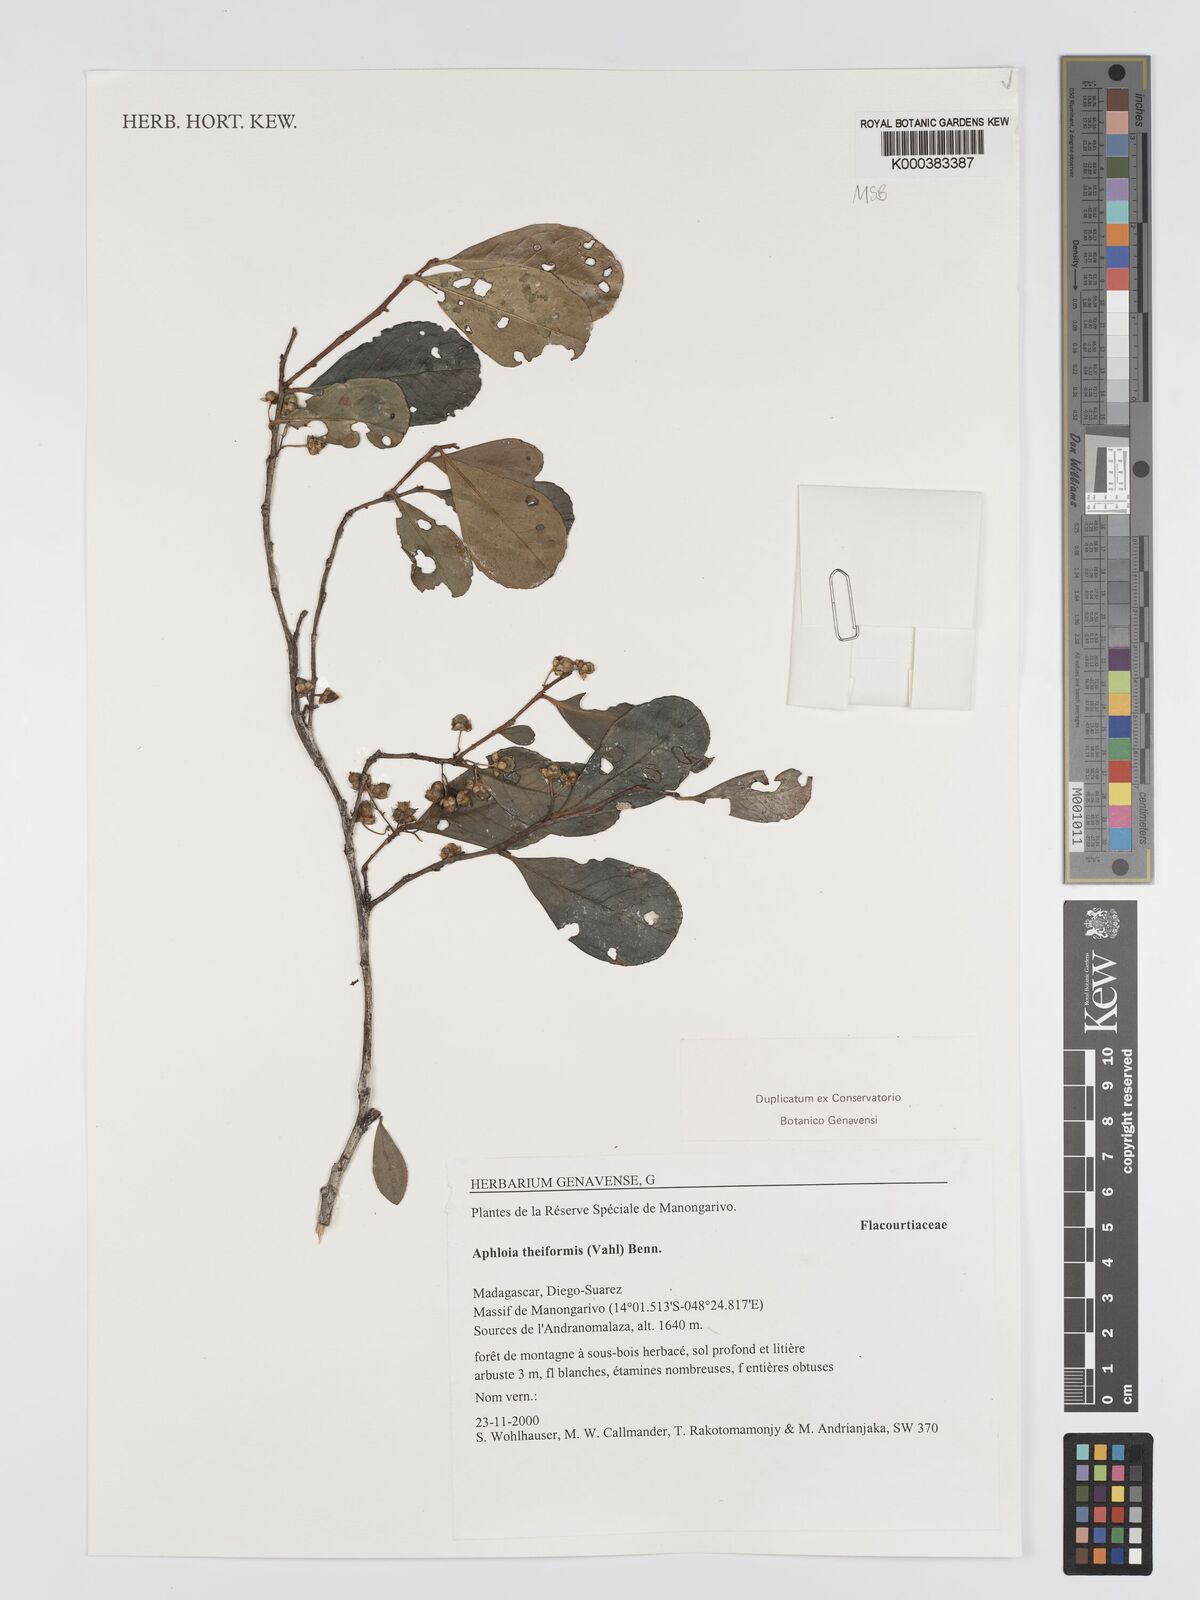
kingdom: Plantae
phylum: Tracheophyta
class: Magnoliopsida
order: Crossosomatales
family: Aphloiaceae
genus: Aphloia
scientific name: Aphloia theiformis
